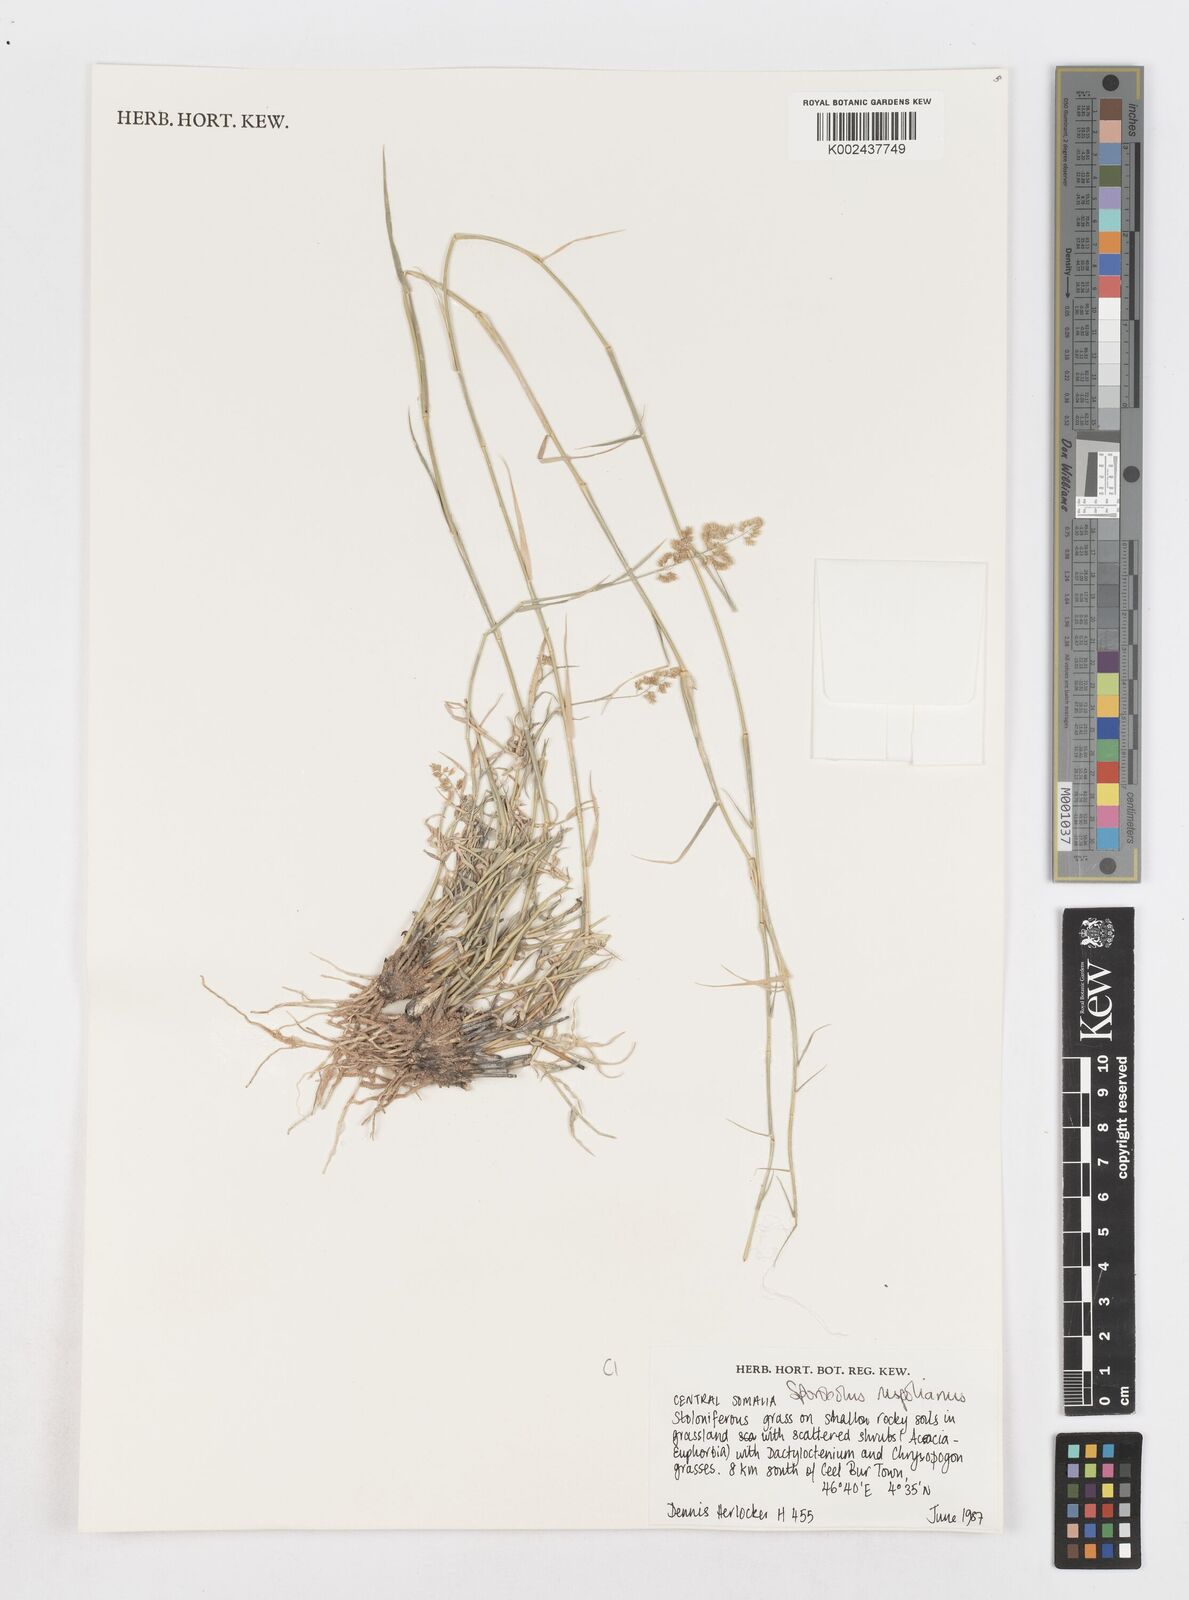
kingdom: Plantae
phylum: Tracheophyta
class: Liliopsida
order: Poales
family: Poaceae
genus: Sporobolus
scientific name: Sporobolus ruspolianus
